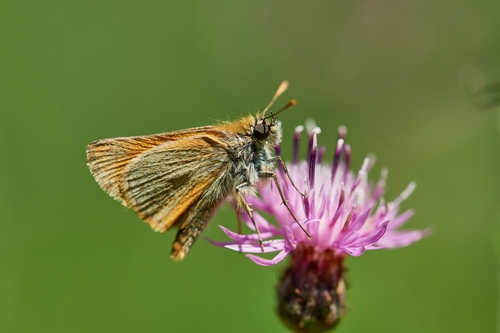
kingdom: Animalia
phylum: Arthropoda
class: Insecta
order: Lepidoptera
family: Hesperiidae
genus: Thymelicus
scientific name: Thymelicus sylvestris
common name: Small skipper
